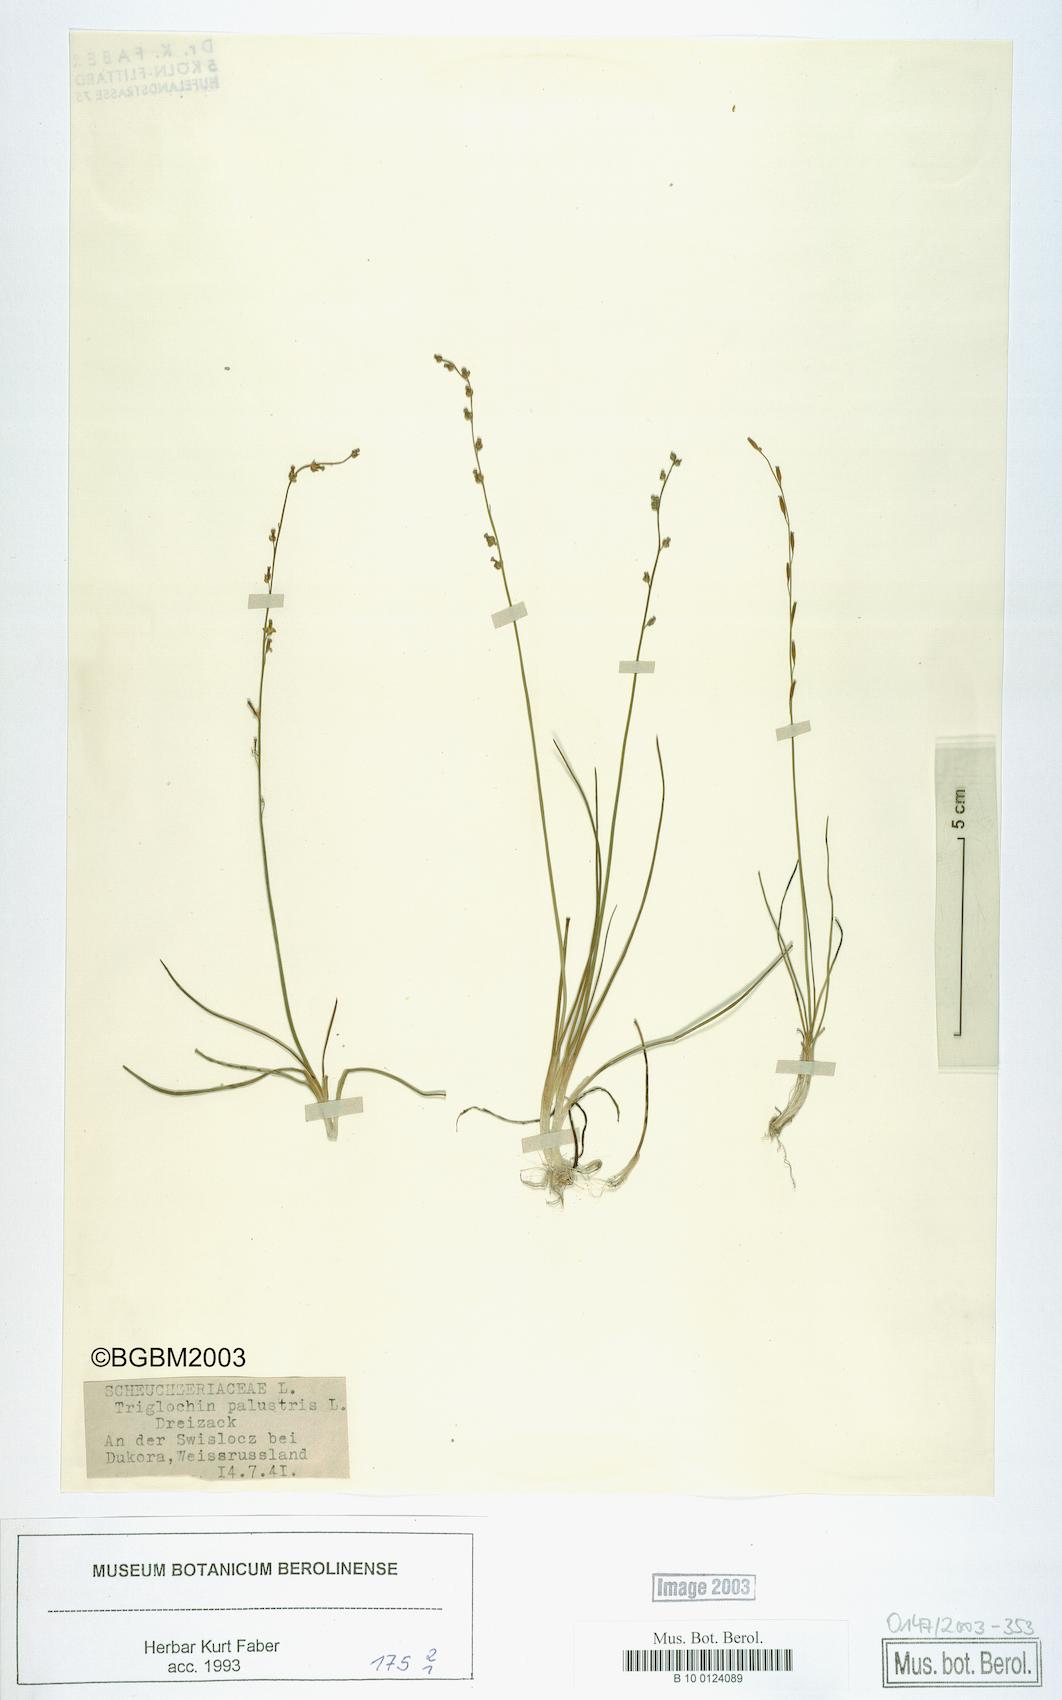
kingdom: Plantae
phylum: Tracheophyta
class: Liliopsida
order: Alismatales
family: Juncaginaceae
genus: Triglochin
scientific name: Triglochin palustris
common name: Marsh arrowgrass
